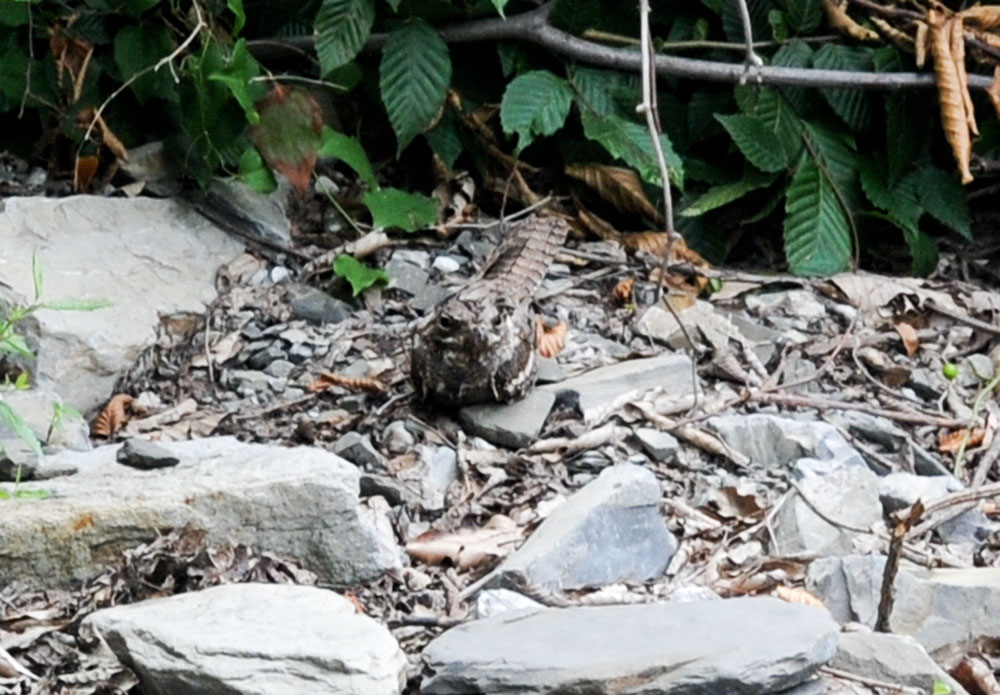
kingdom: Animalia
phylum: Chordata
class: Aves
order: Caprimulgiformes
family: Caprimulgidae
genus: Caprimulgus
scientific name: Caprimulgus europaeus
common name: European nightjar
